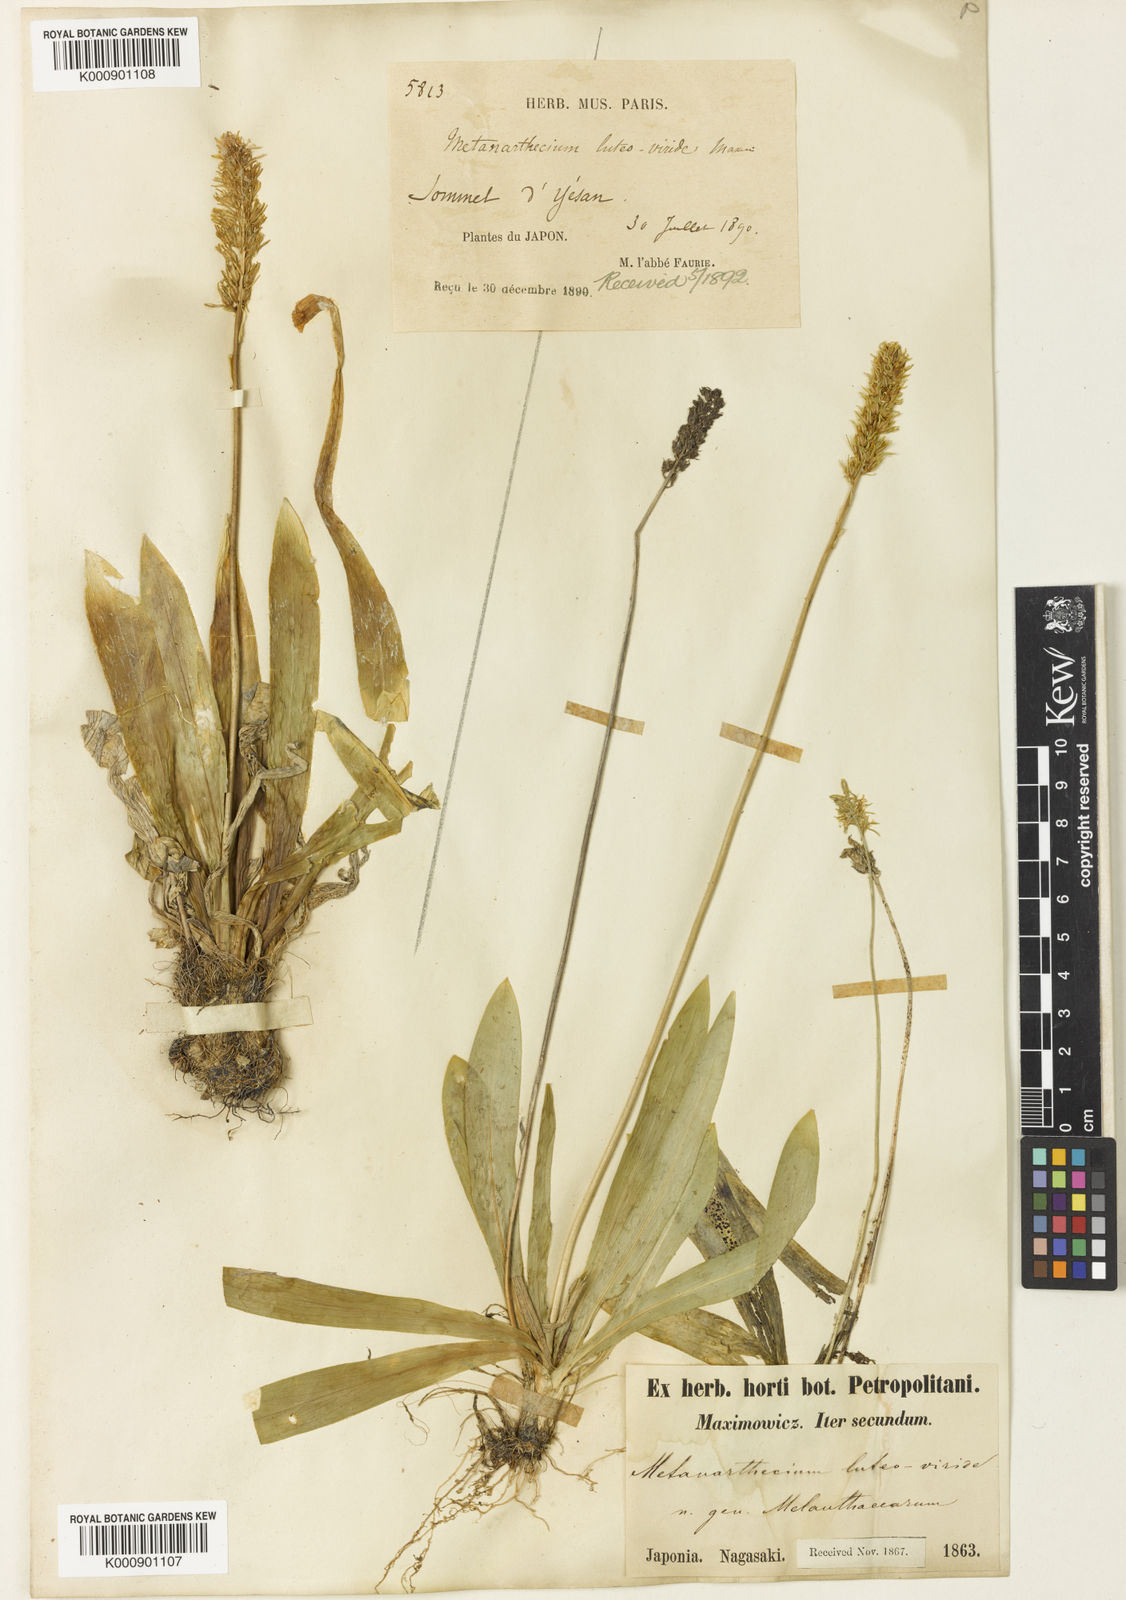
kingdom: Plantae
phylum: Tracheophyta
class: Liliopsida
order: Dioscoreales
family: Nartheciaceae
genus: Metanarthecium
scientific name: Metanarthecium luteoviride
